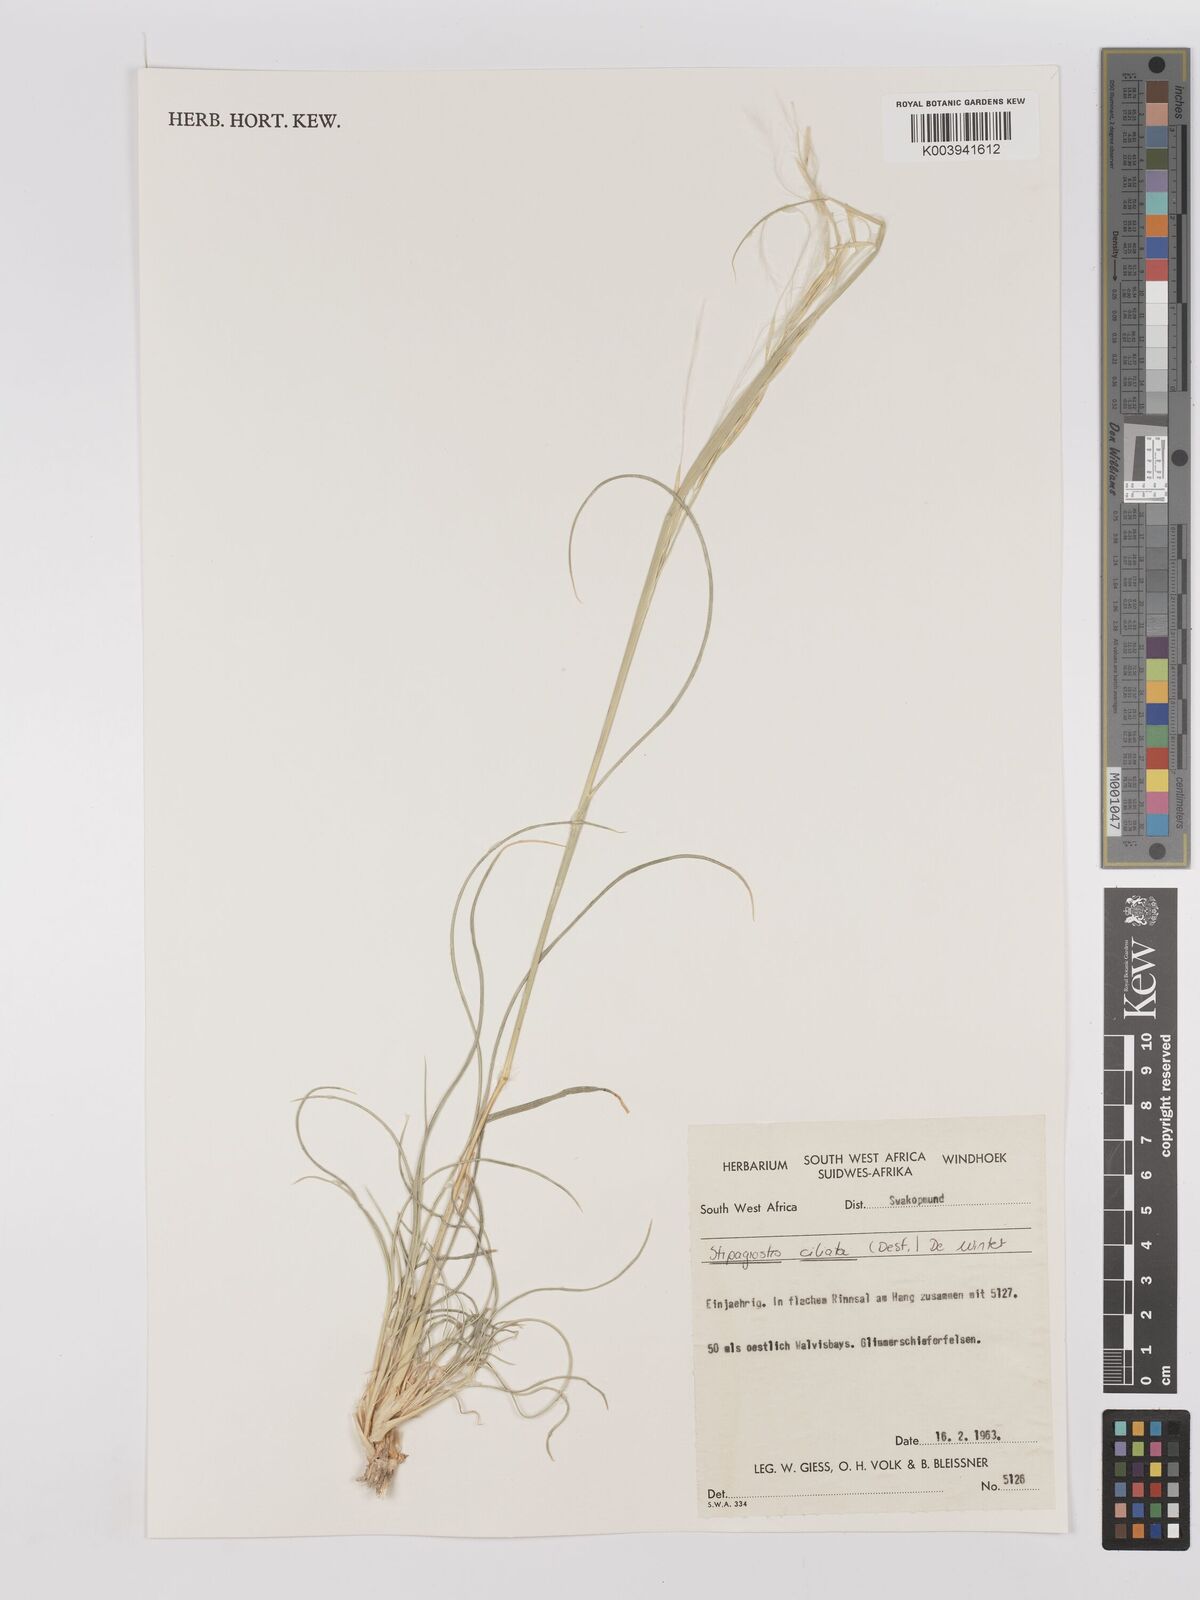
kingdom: Plantae
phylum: Tracheophyta
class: Liliopsida
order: Poales
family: Poaceae
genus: Stipagrostis
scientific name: Stipagrostis ciliata
